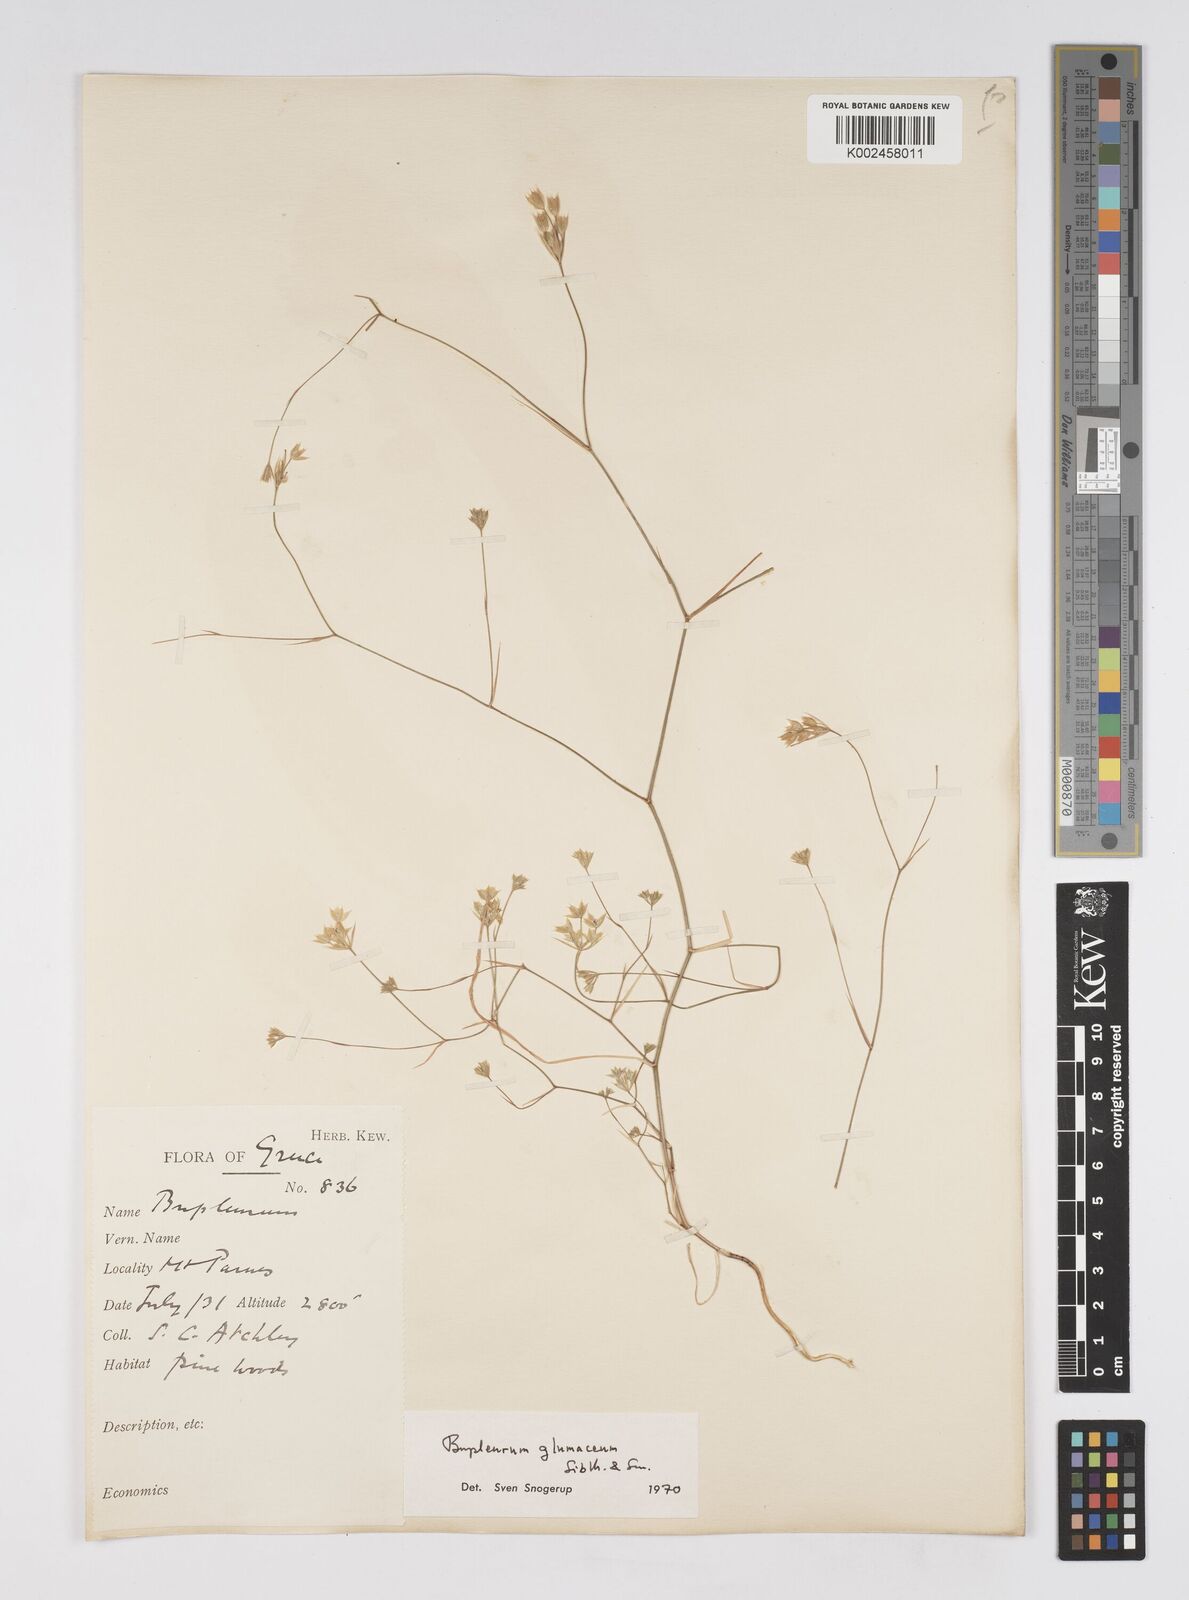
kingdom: Plantae
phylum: Tracheophyta
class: Magnoliopsida
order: Apiales
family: Apiaceae
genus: Bupleurum
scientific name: Bupleurum glumaceum
